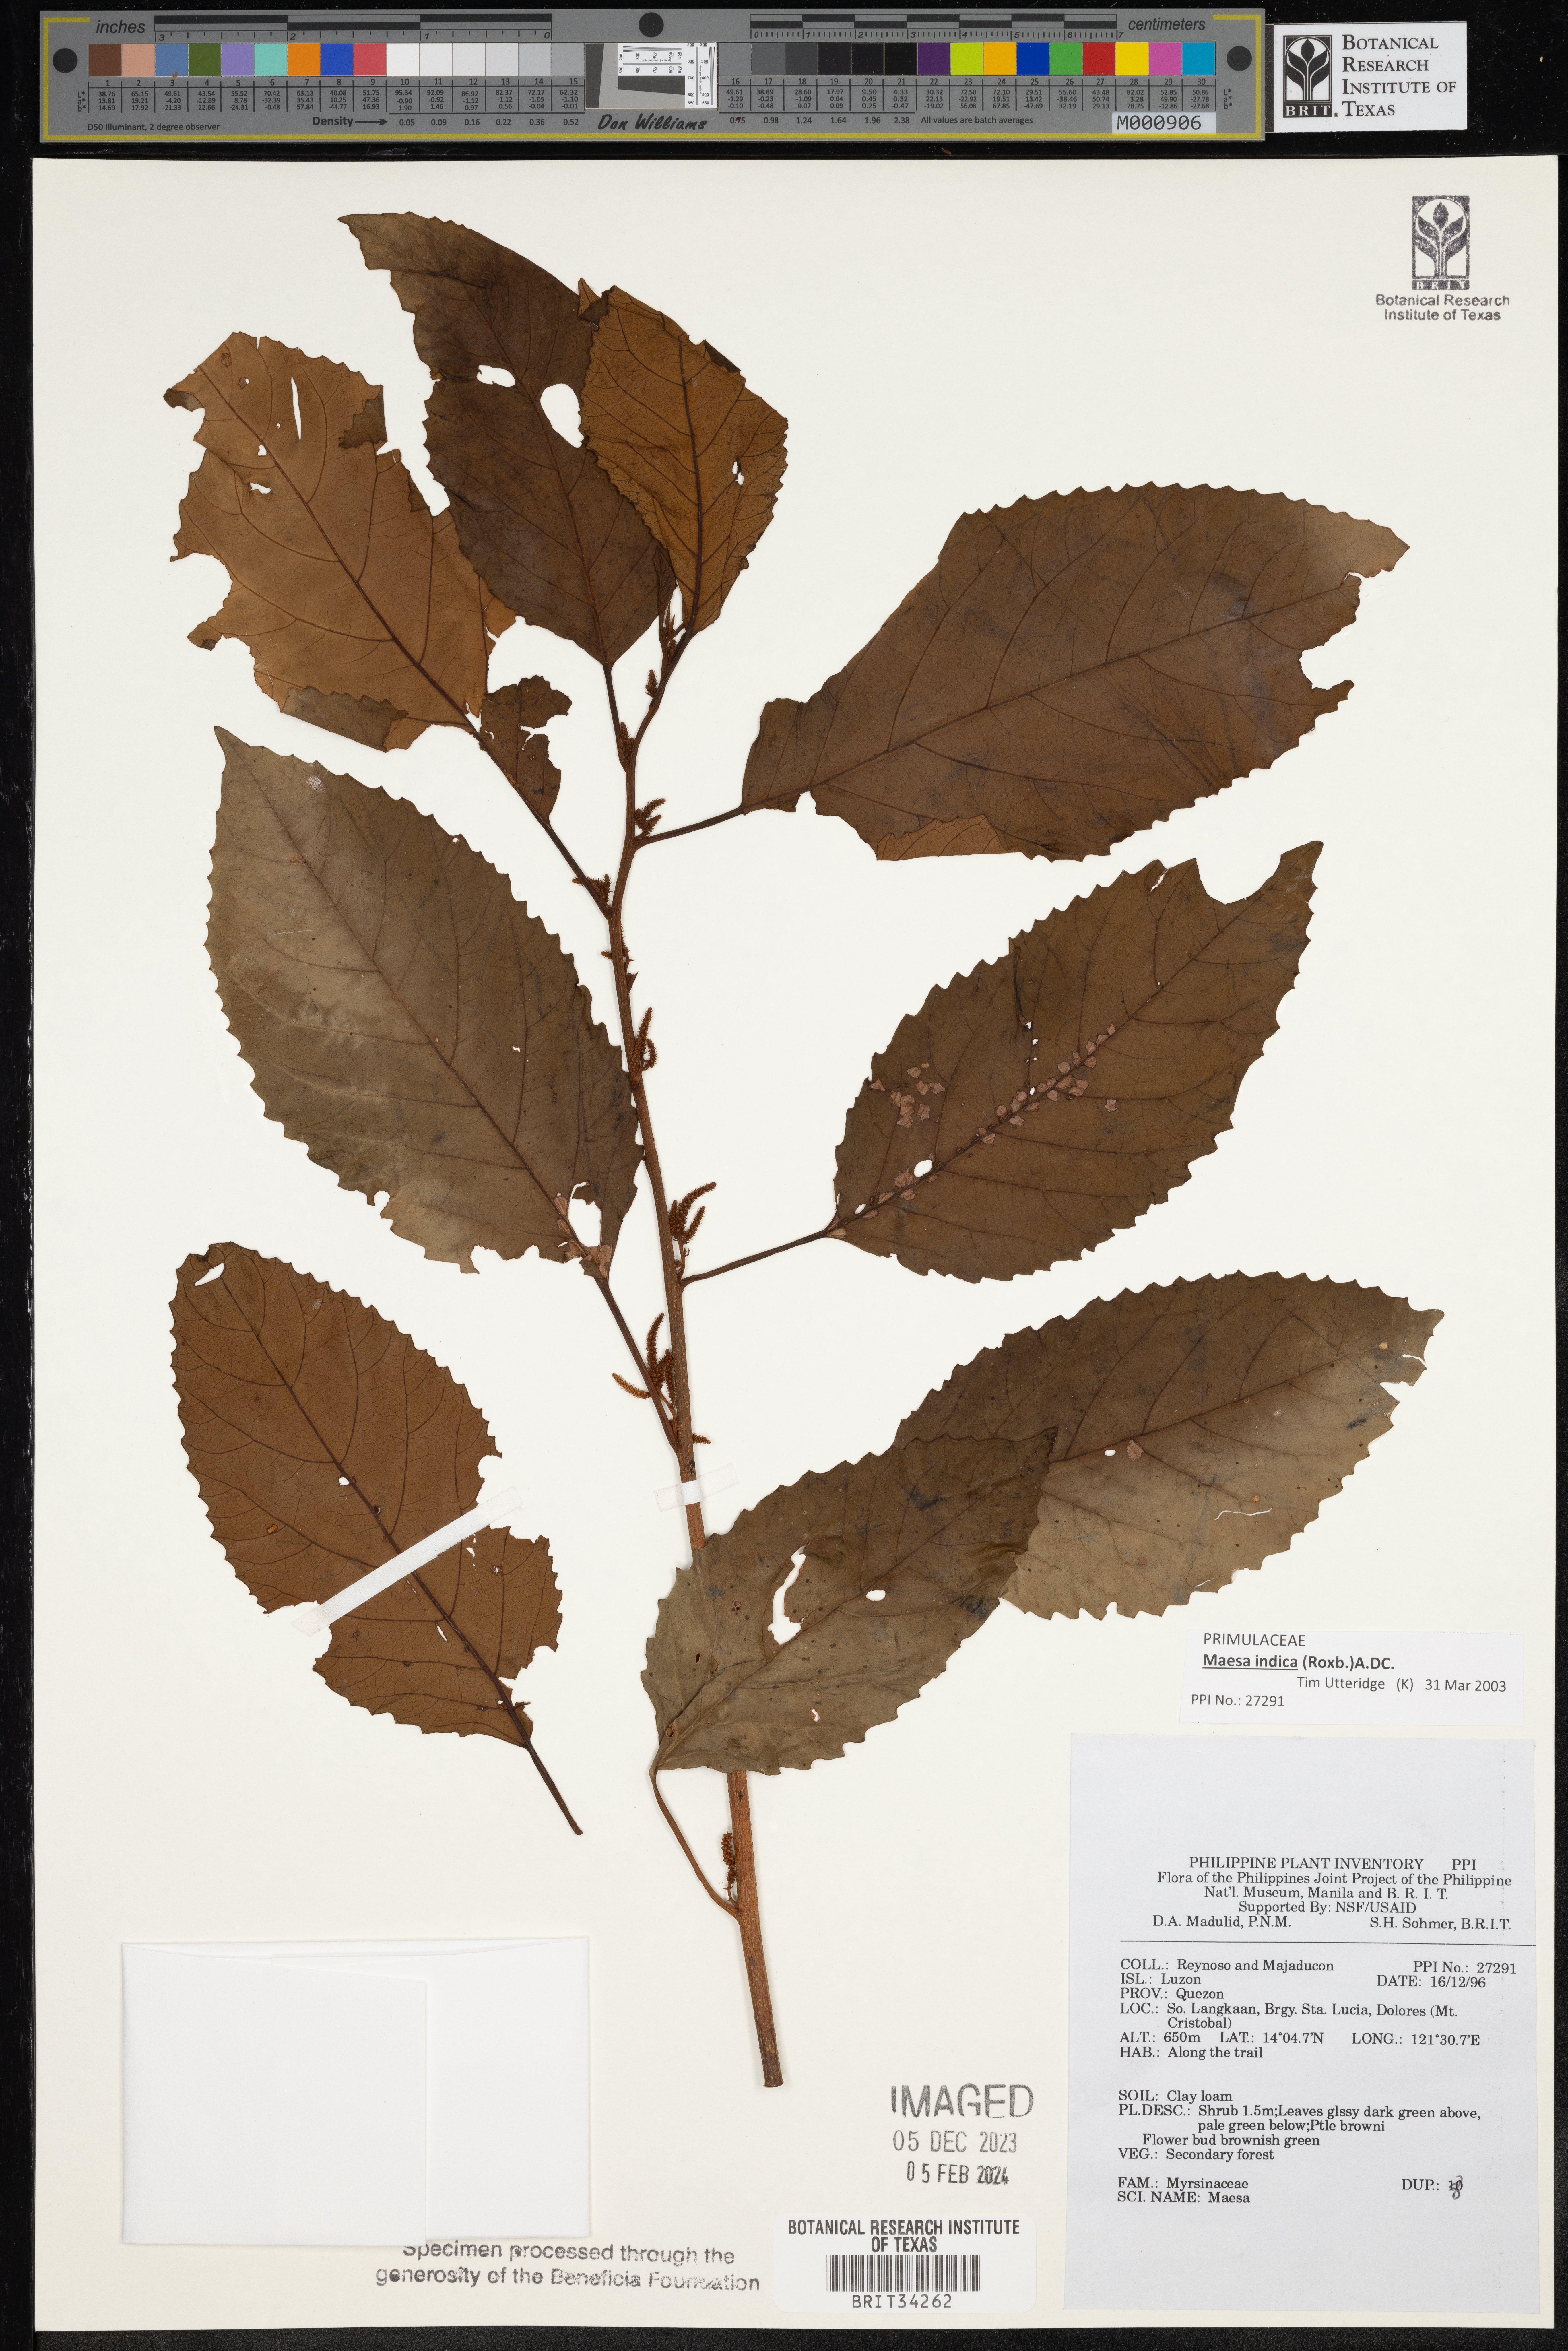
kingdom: Plantae
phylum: Tracheophyta
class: Magnoliopsida
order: Ericales
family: Primulaceae
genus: Maesa
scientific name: Maesa
